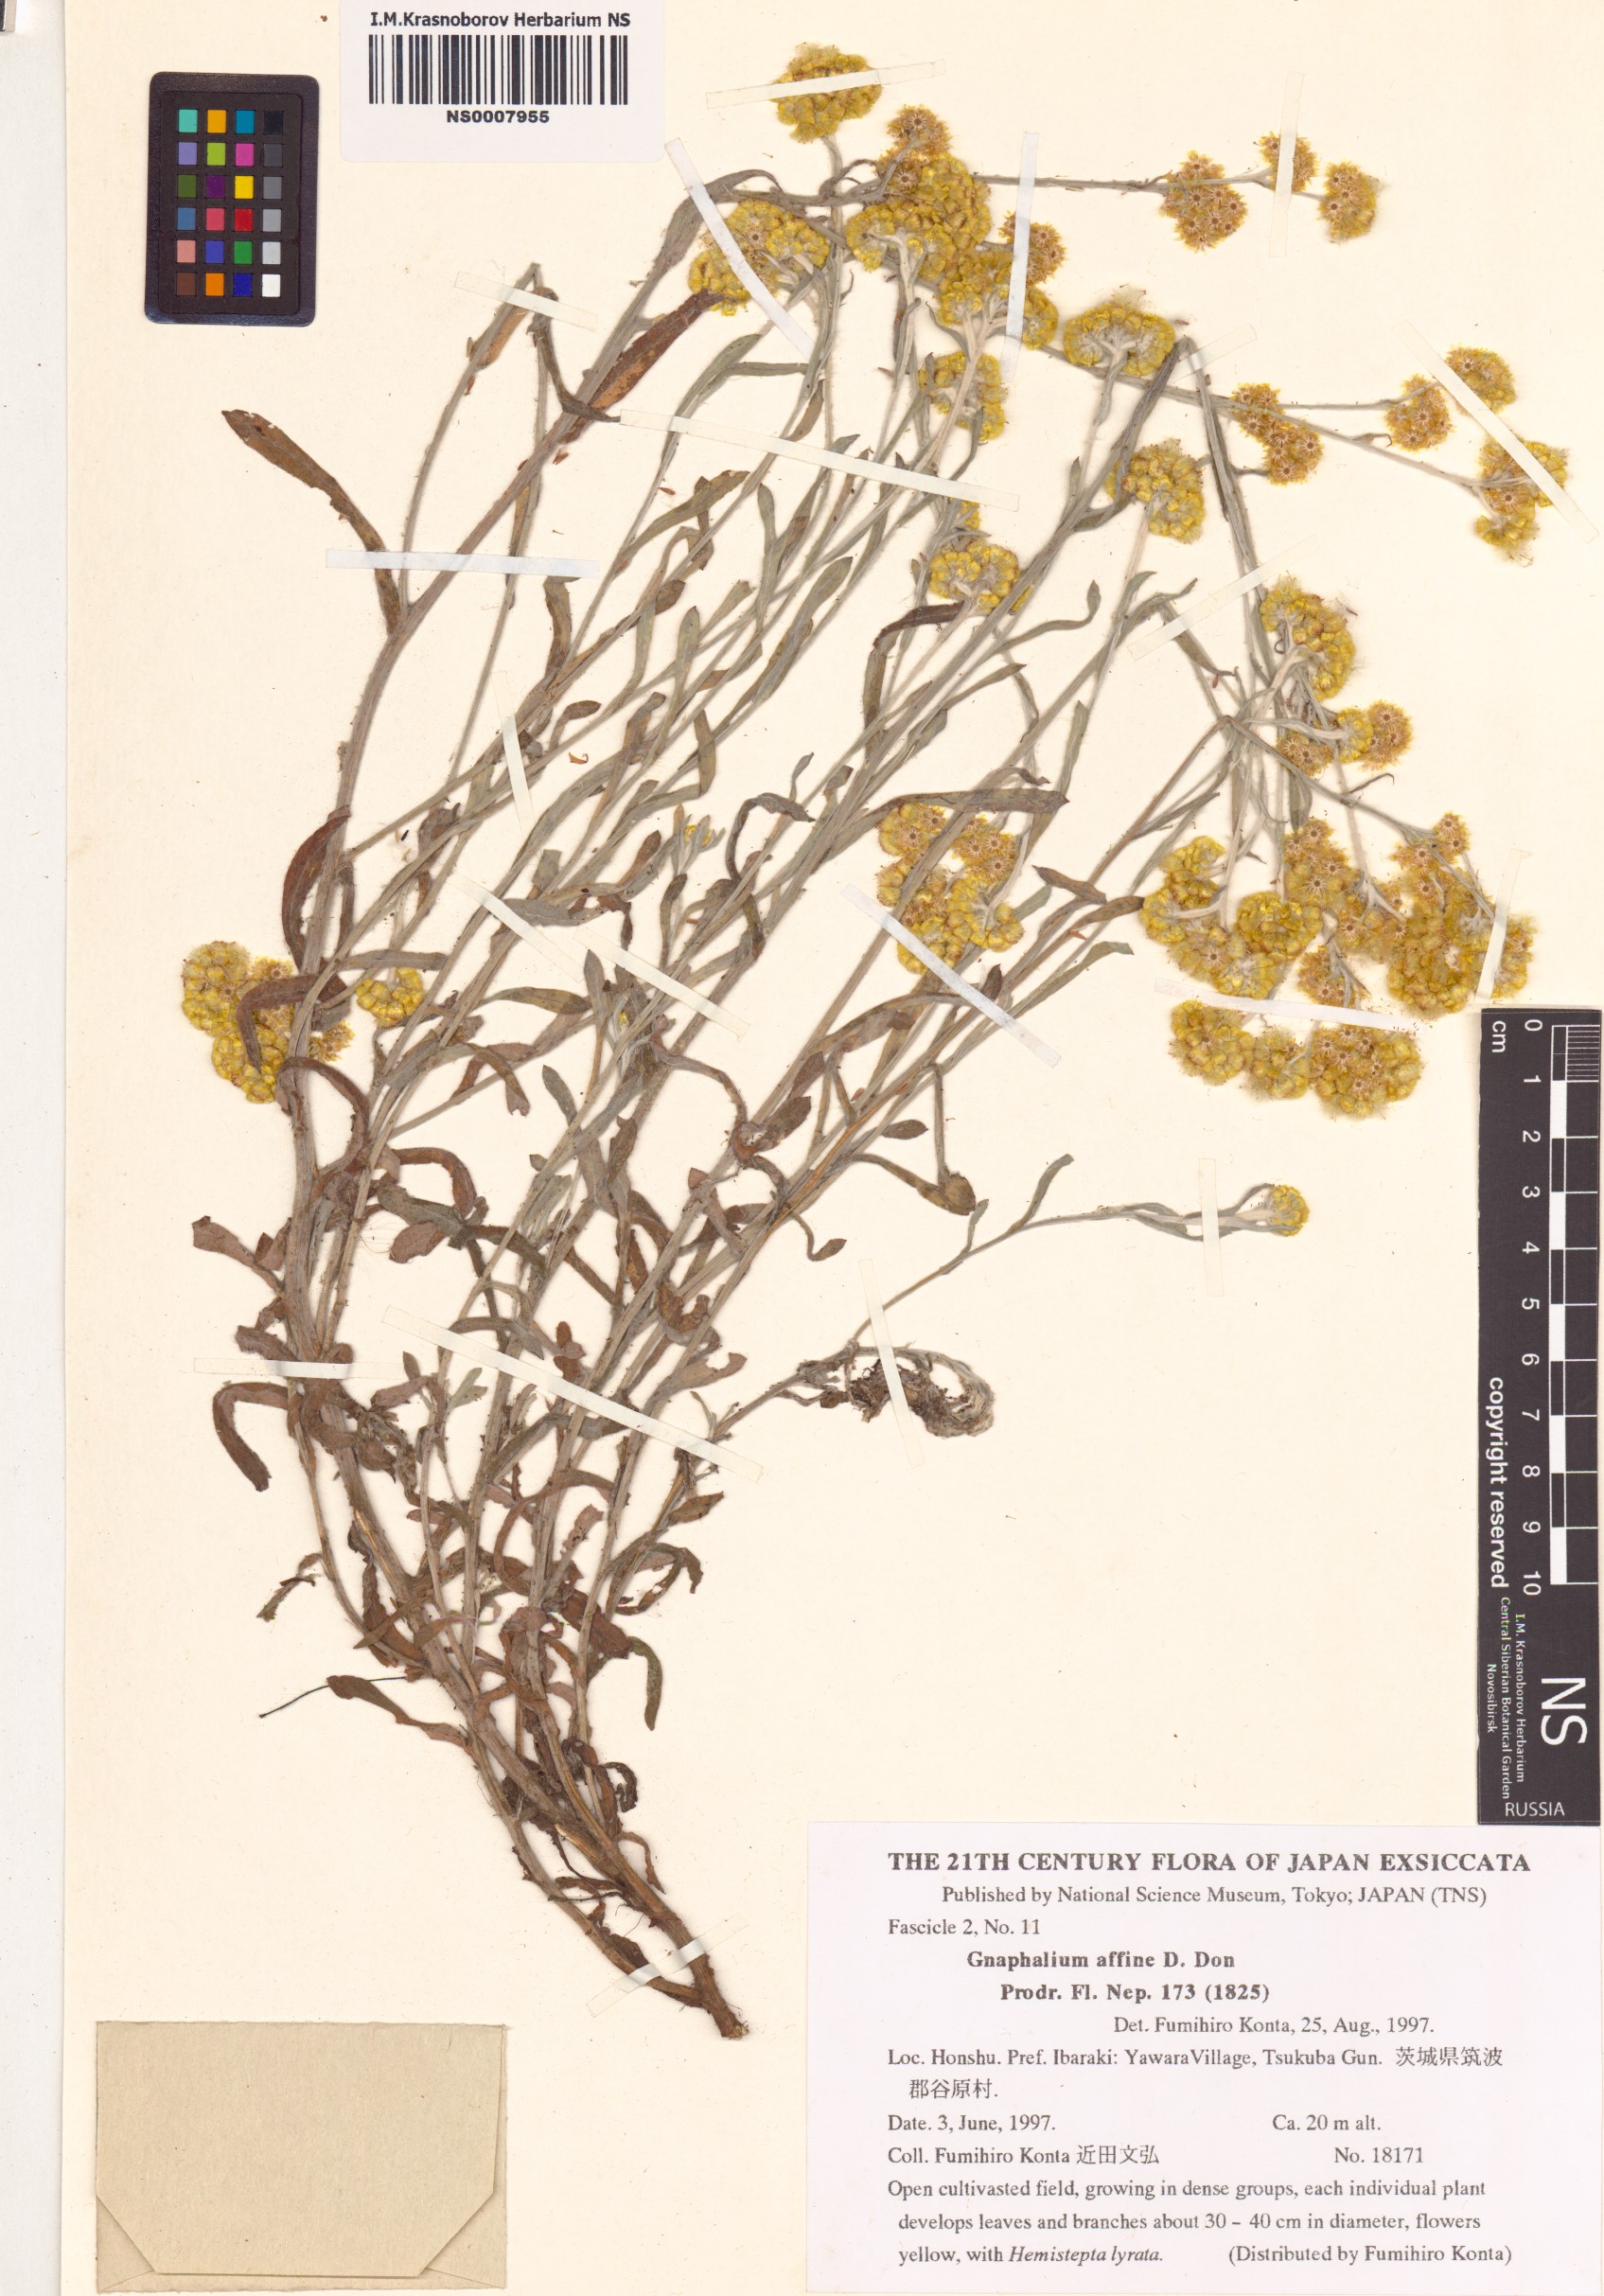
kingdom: Plantae
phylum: Tracheophyta
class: Magnoliopsida
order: Asterales
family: Asteraceae
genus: Pseudognaphalium
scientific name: Pseudognaphalium affine
